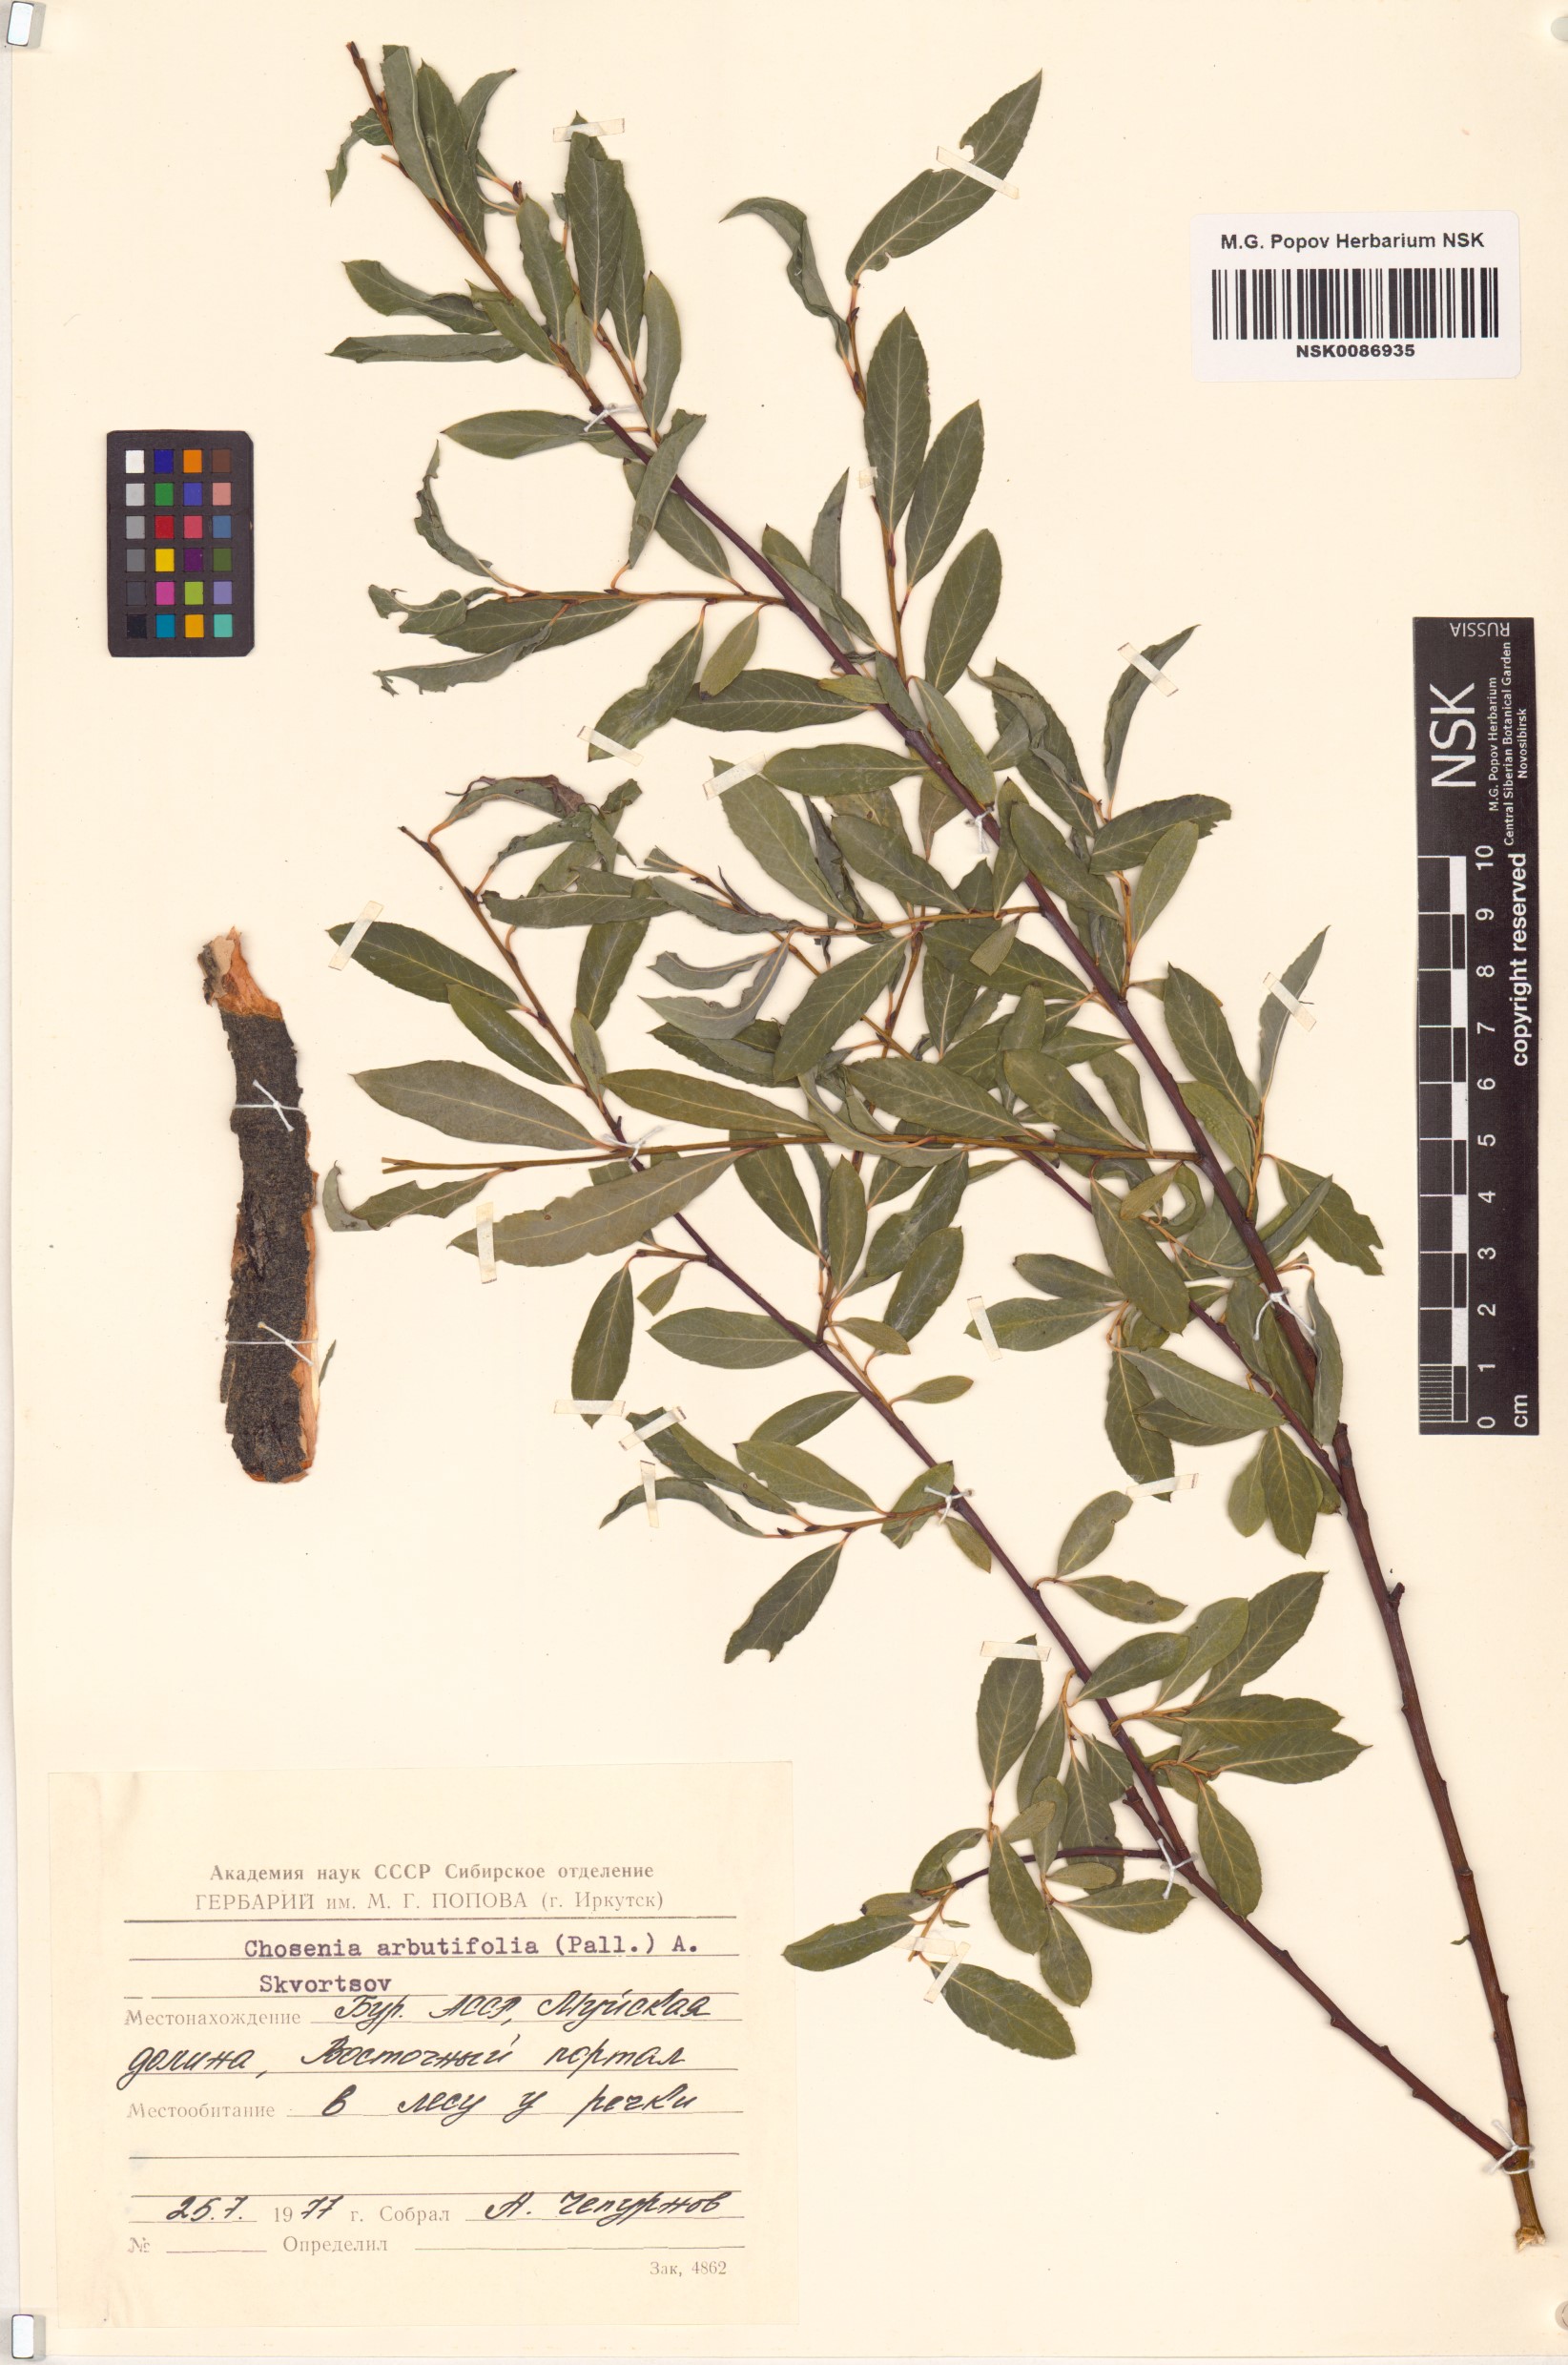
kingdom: Plantae
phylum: Tracheophyta
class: Magnoliopsida
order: Malpighiales
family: Salicaceae
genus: Chosenia
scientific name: Chosenia arbutifolia
